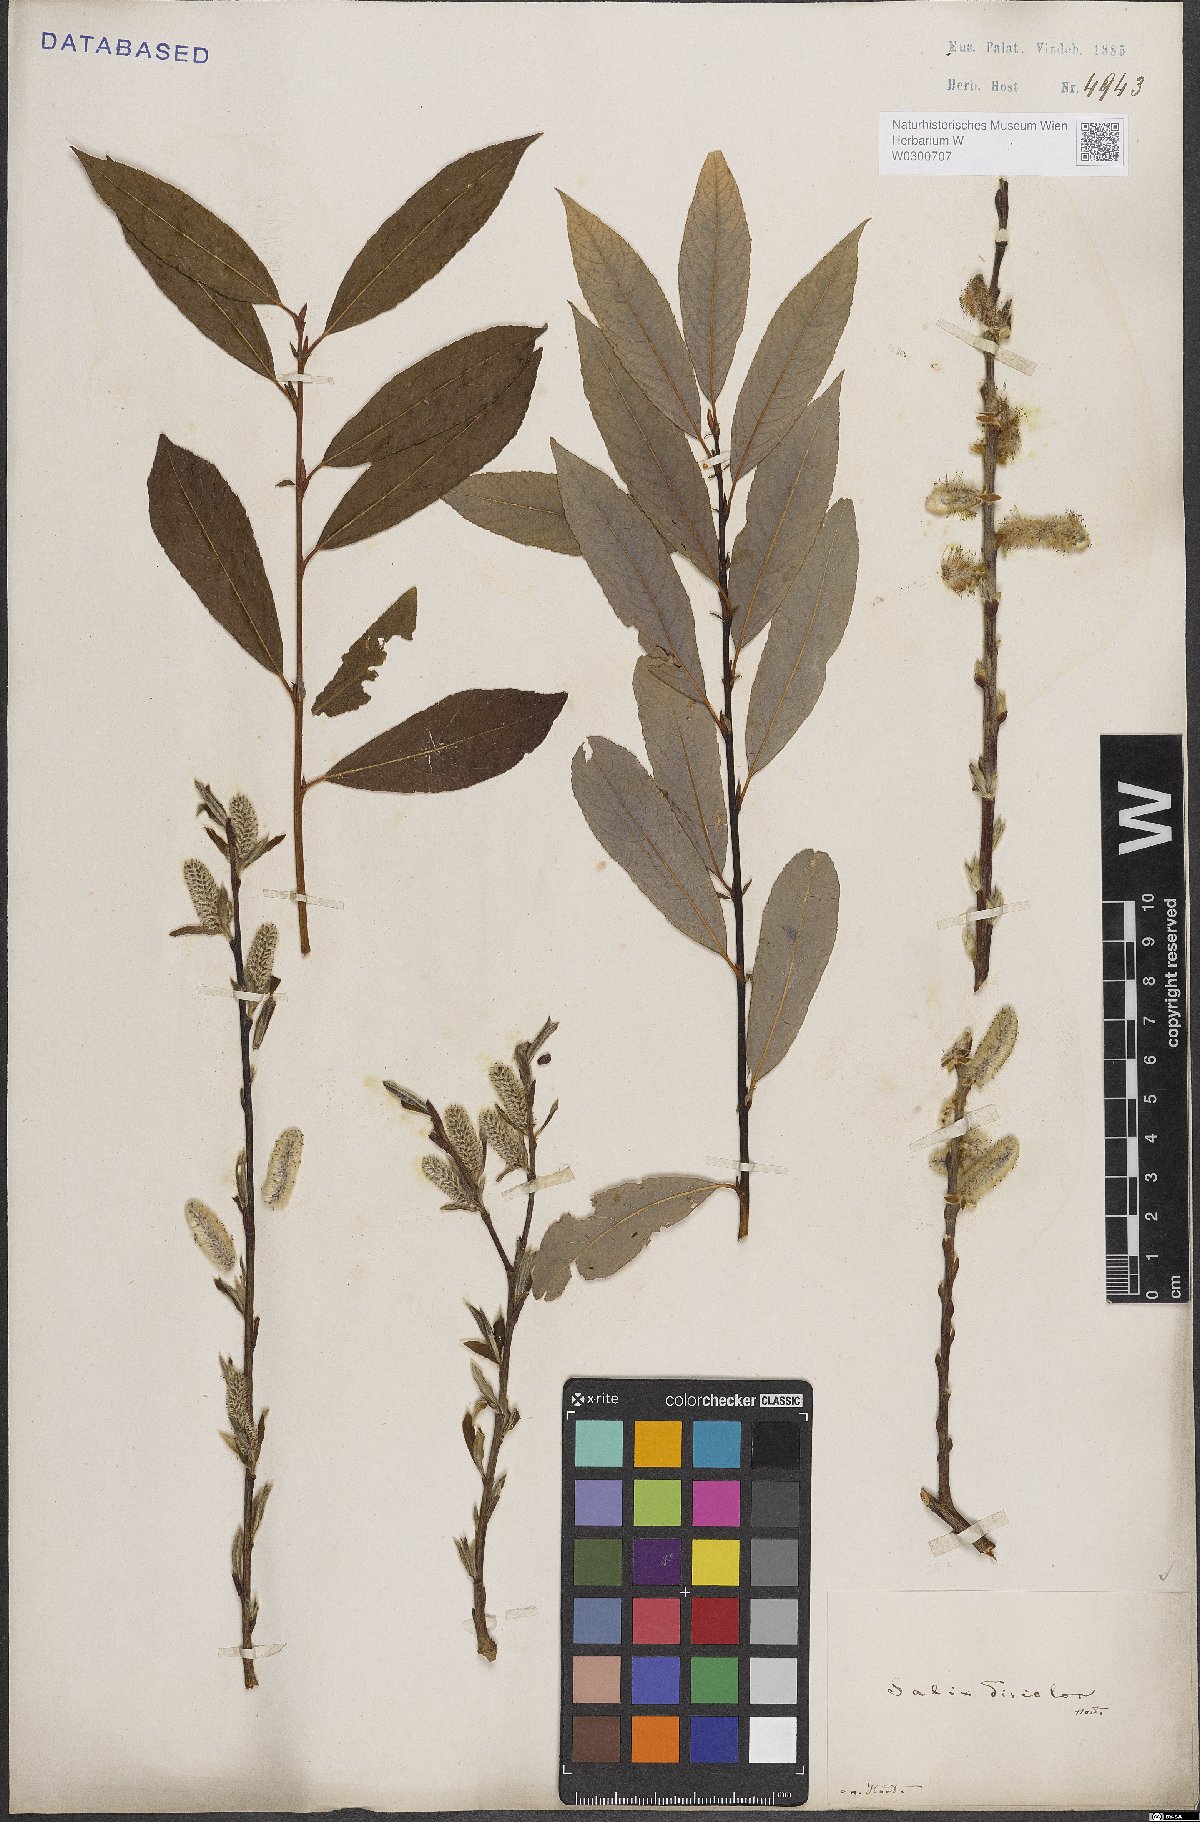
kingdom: Plantae
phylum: Tracheophyta
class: Magnoliopsida
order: Malpighiales
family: Salicaceae
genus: Salix
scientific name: Salix discolor
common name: Glaucous willow
